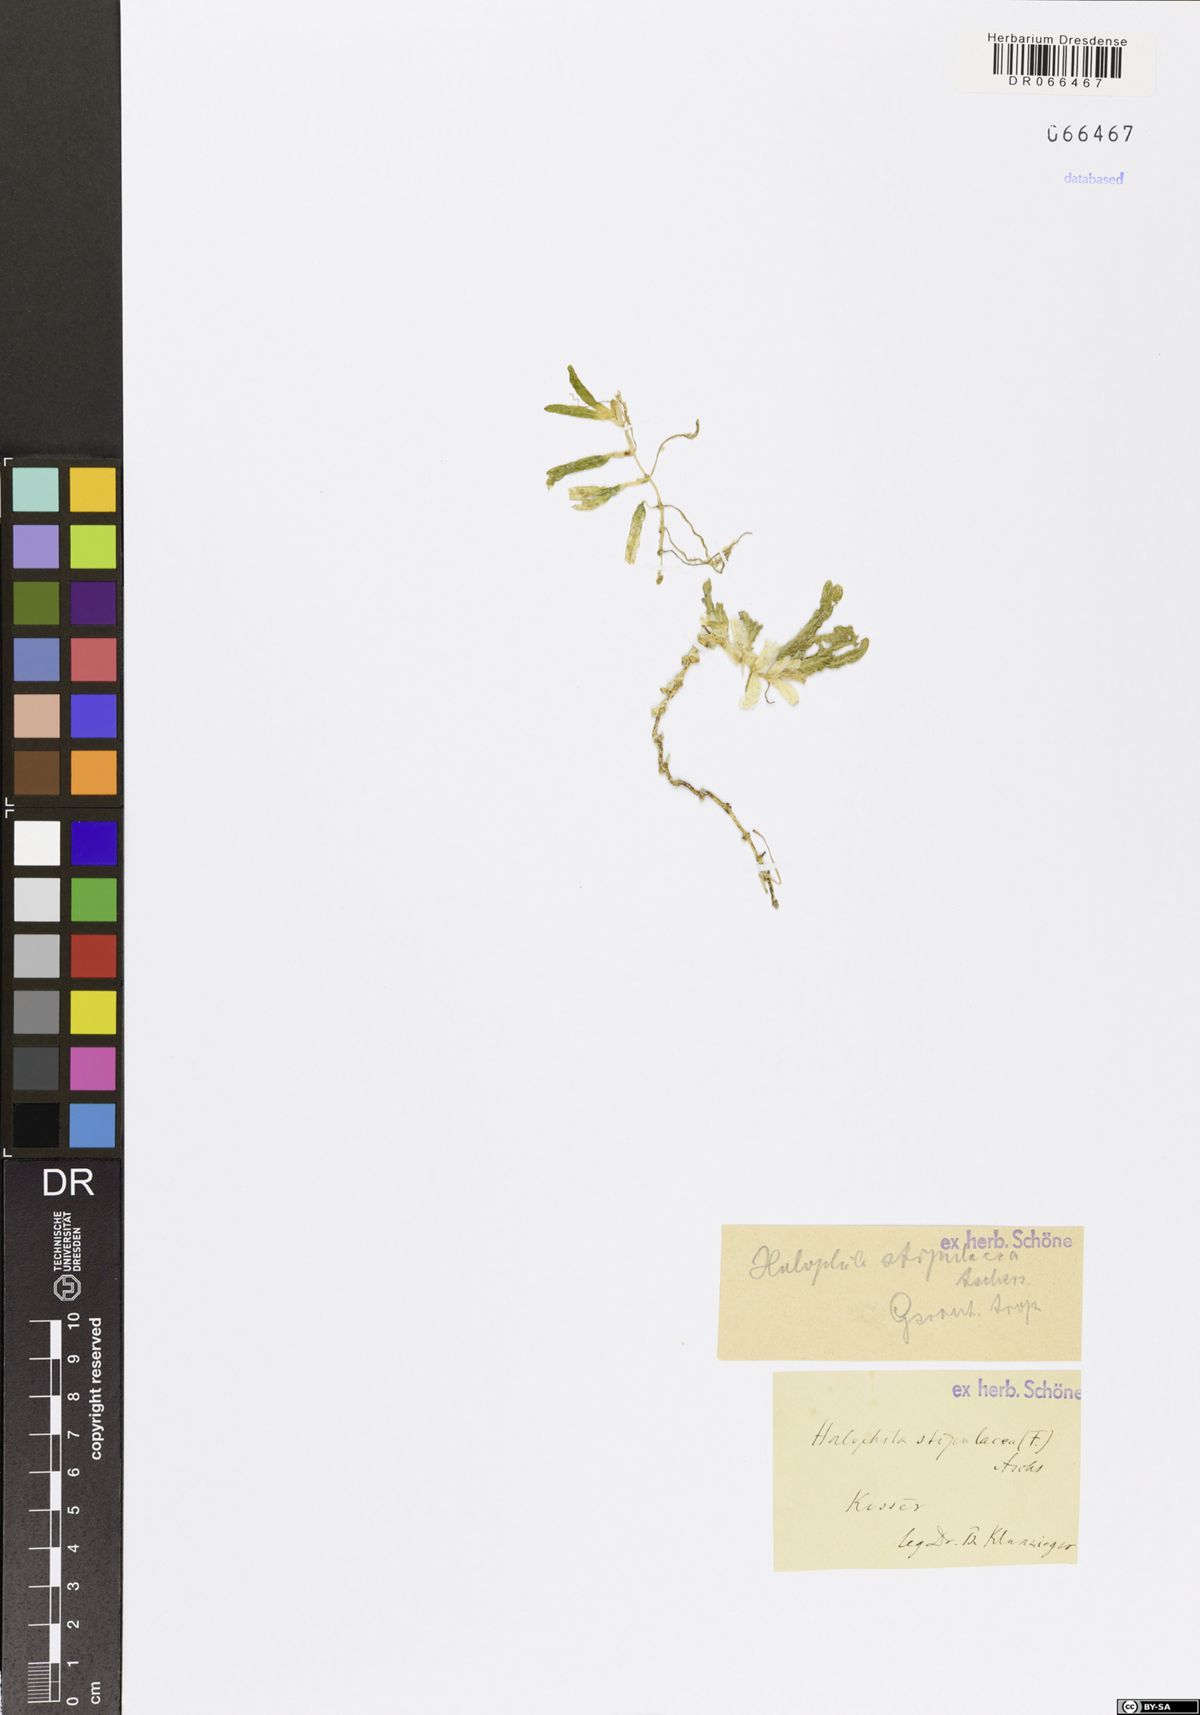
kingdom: Plantae
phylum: Tracheophyta
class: Liliopsida
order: Alismatales
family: Hydrocharitaceae
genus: Halophila
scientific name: Halophila stipulacea
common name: Species code: hs
